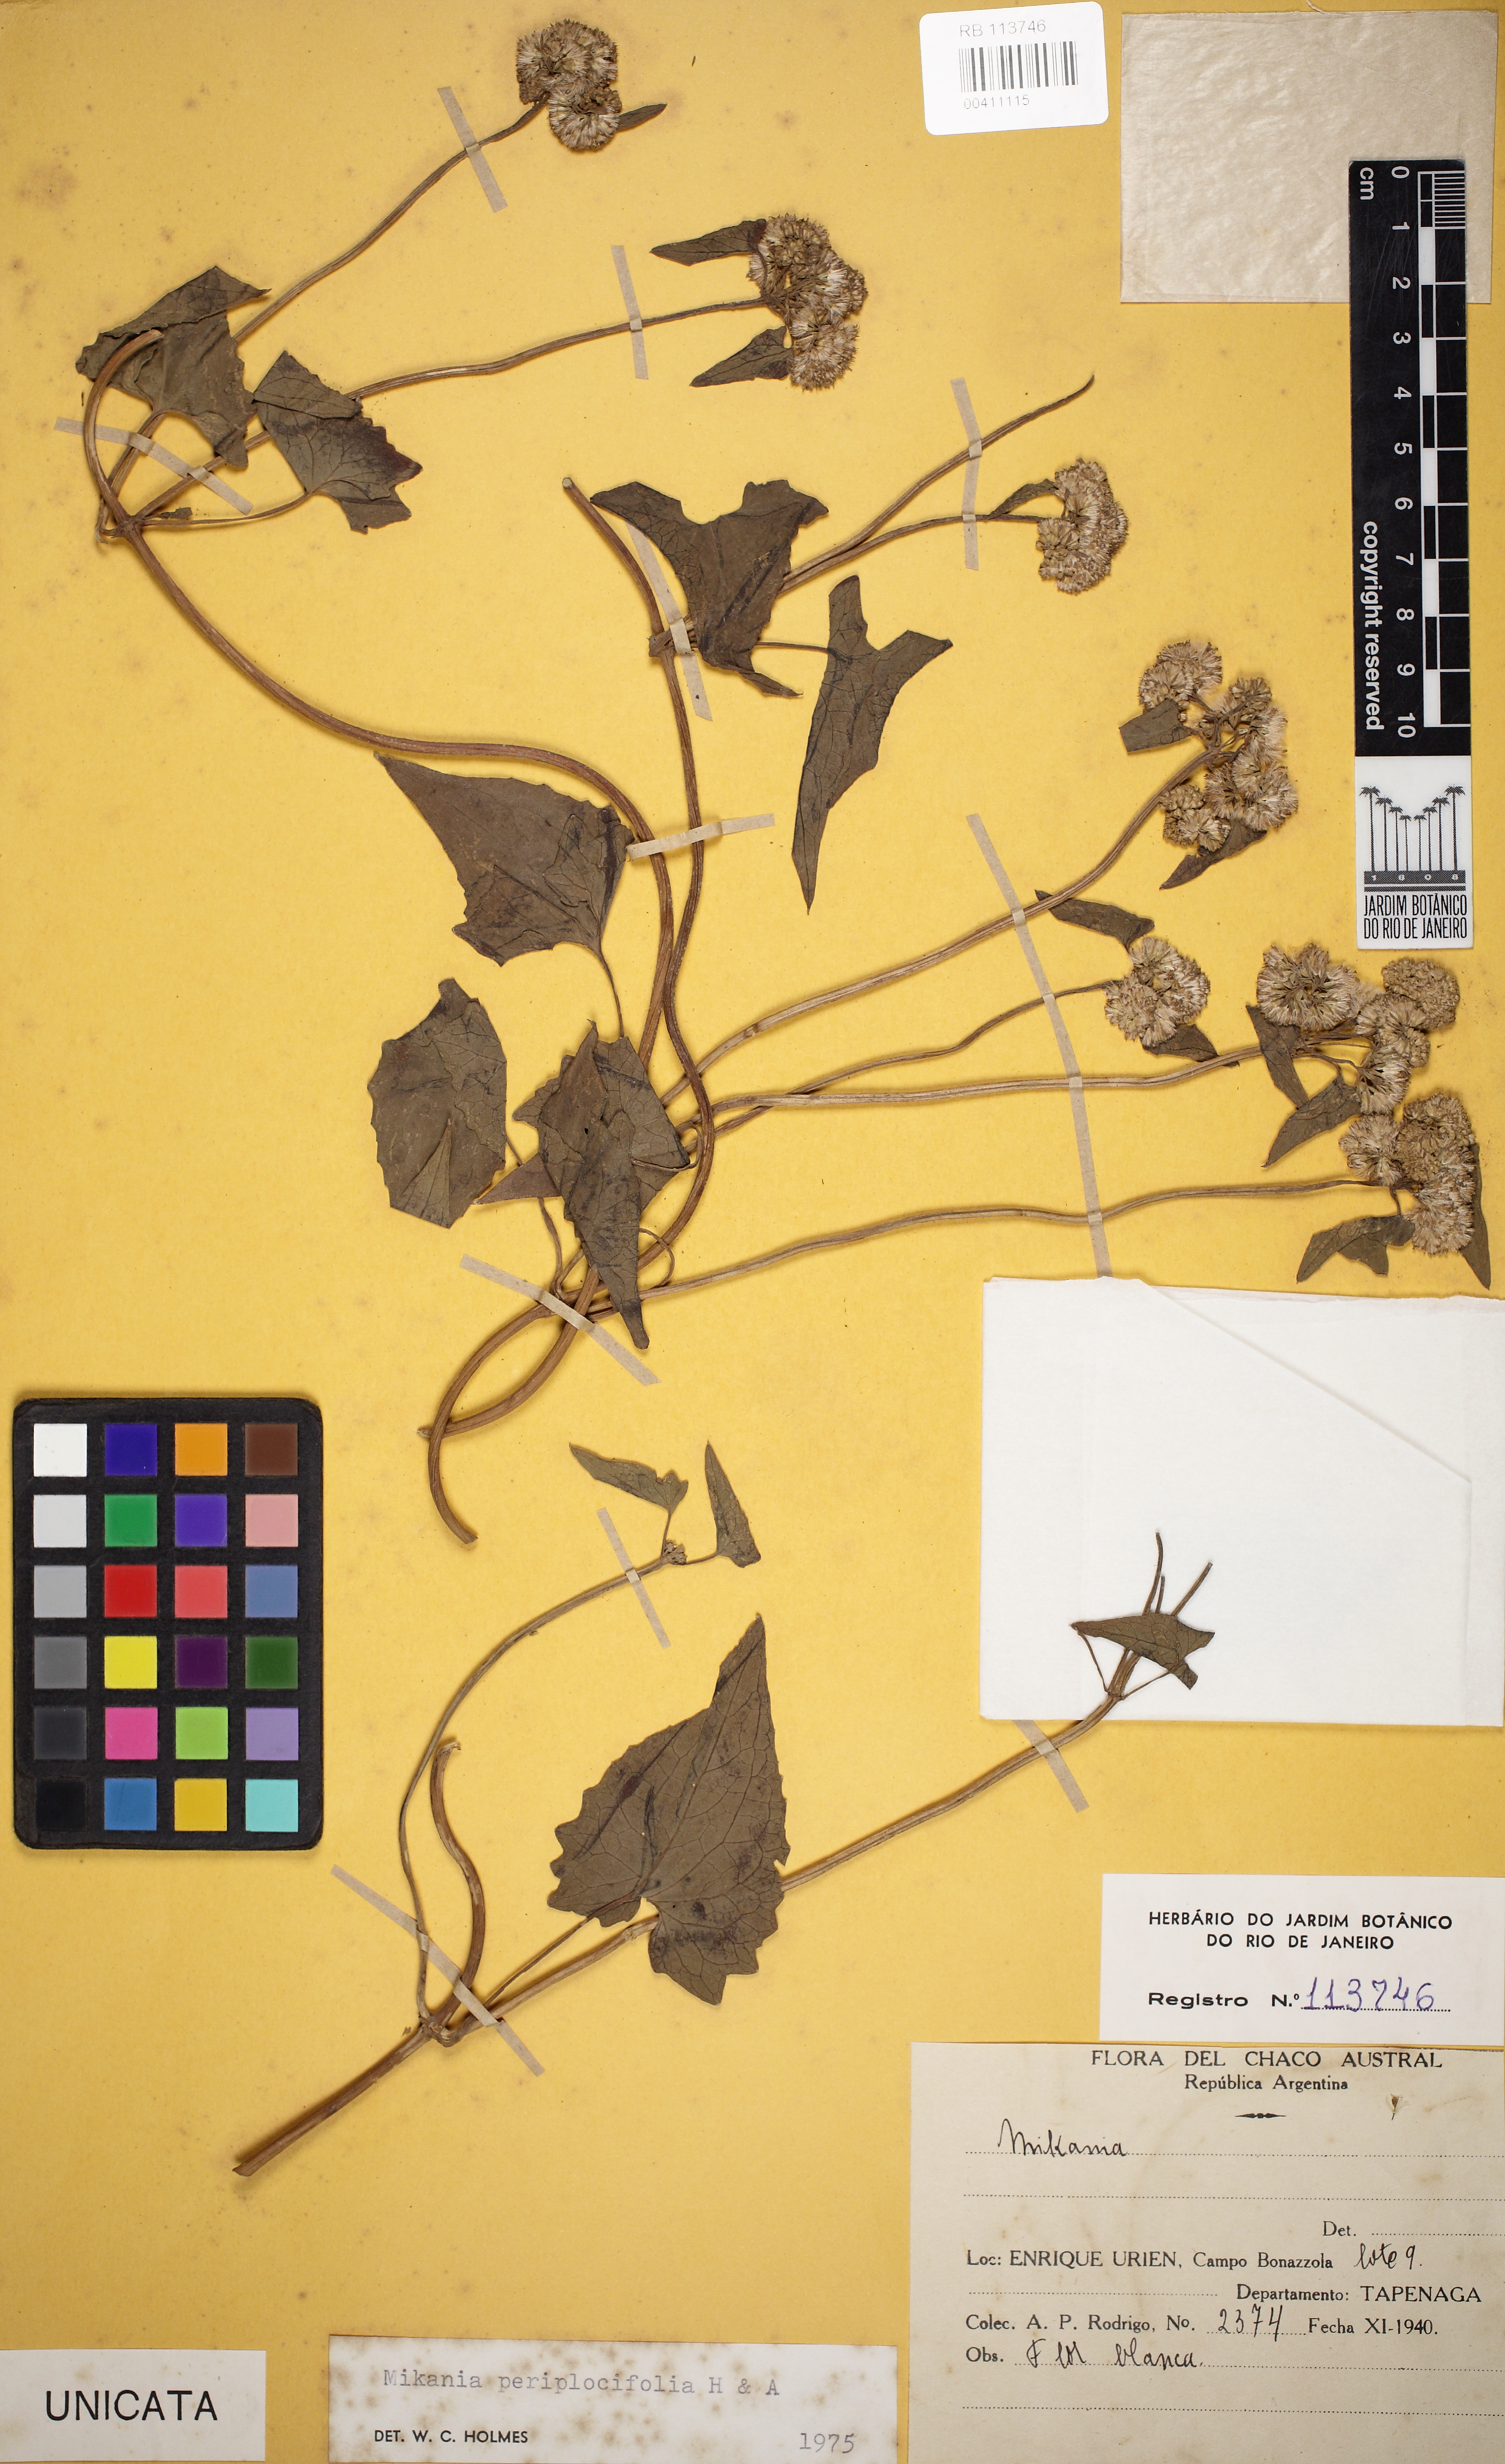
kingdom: Plantae
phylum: Tracheophyta
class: Magnoliopsida
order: Asterales
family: Asteraceae
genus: Mikania
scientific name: Mikania periplocifolia
